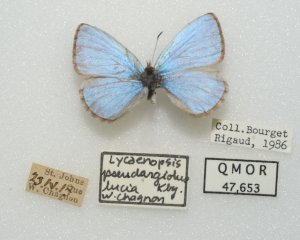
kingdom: Animalia
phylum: Arthropoda
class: Insecta
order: Lepidoptera
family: Lycaenidae
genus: Celastrina
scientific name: Celastrina lucia
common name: Northern Spring Azure
